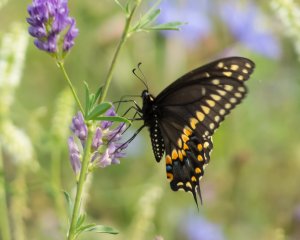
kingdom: Animalia
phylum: Arthropoda
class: Insecta
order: Lepidoptera
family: Papilionidae
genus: Papilio
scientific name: Papilio polyxenes
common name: Black Swallowtail
